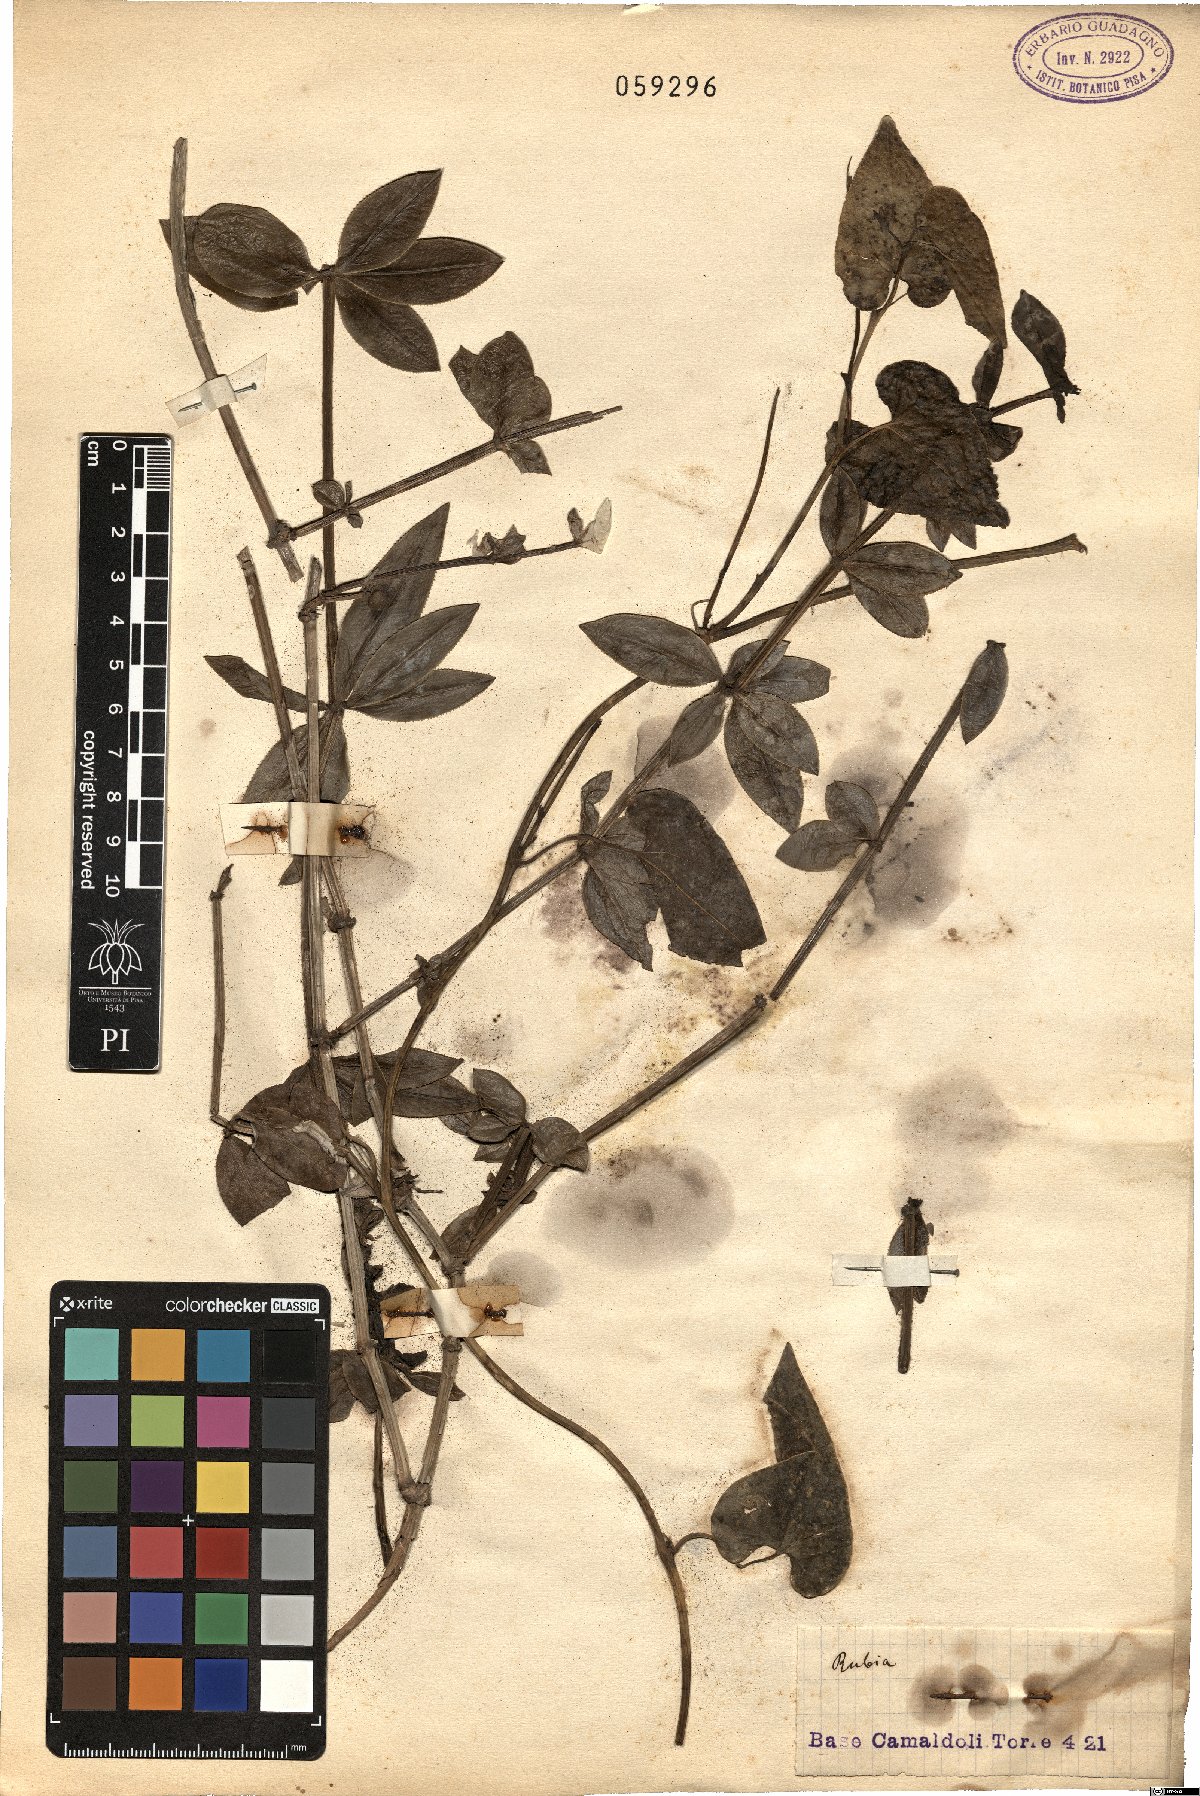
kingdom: Plantae
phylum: Tracheophyta
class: Magnoliopsida
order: Gentianales
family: Rubiaceae
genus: Rubia
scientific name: Rubia
